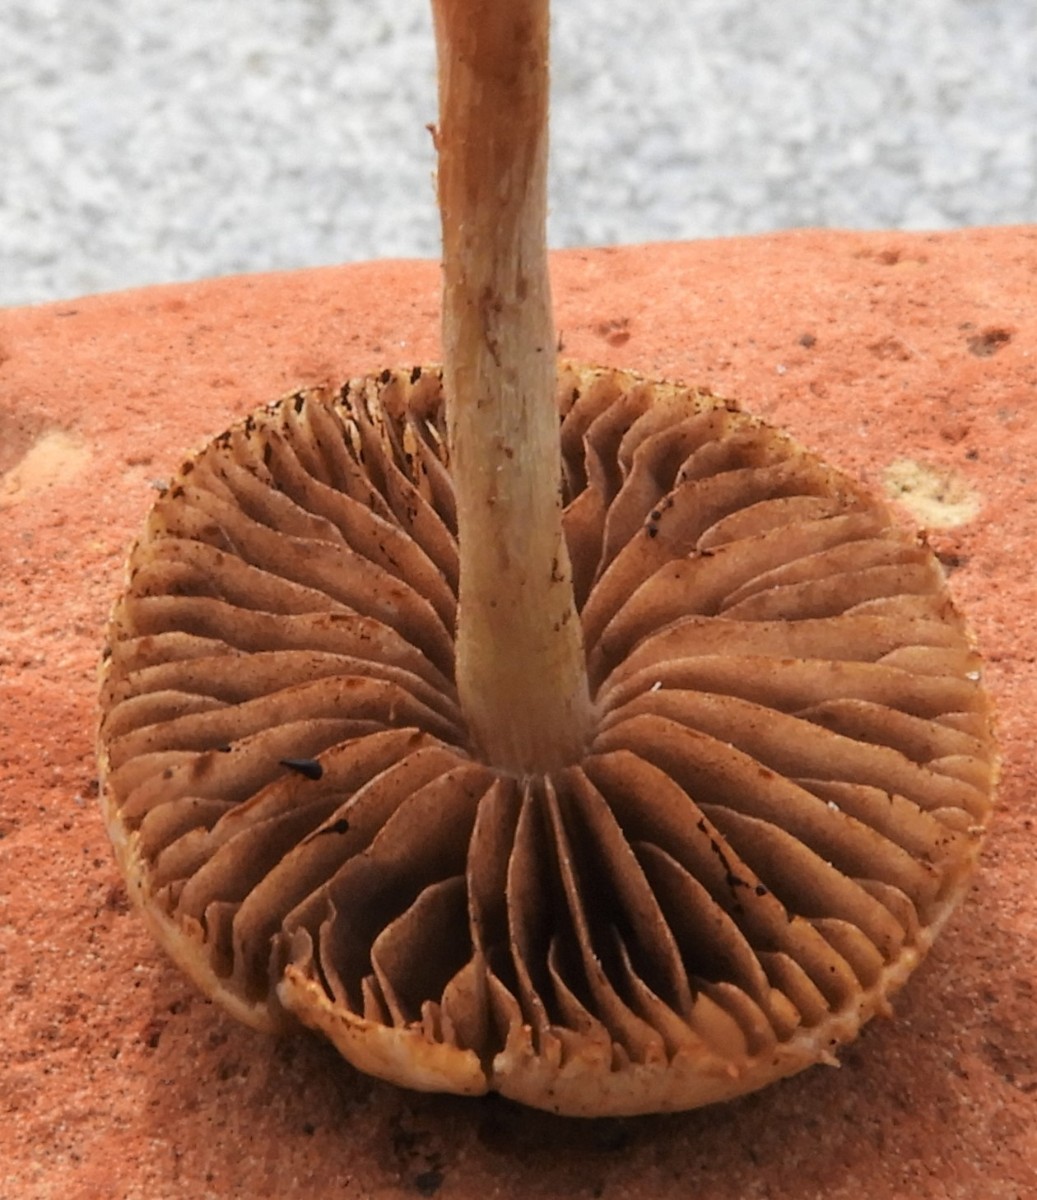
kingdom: Fungi
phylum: Basidiomycota
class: Agaricomycetes
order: Agaricales
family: Strophariaceae
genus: Agrocybe
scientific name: Agrocybe pediades
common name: almindelig agerhat
